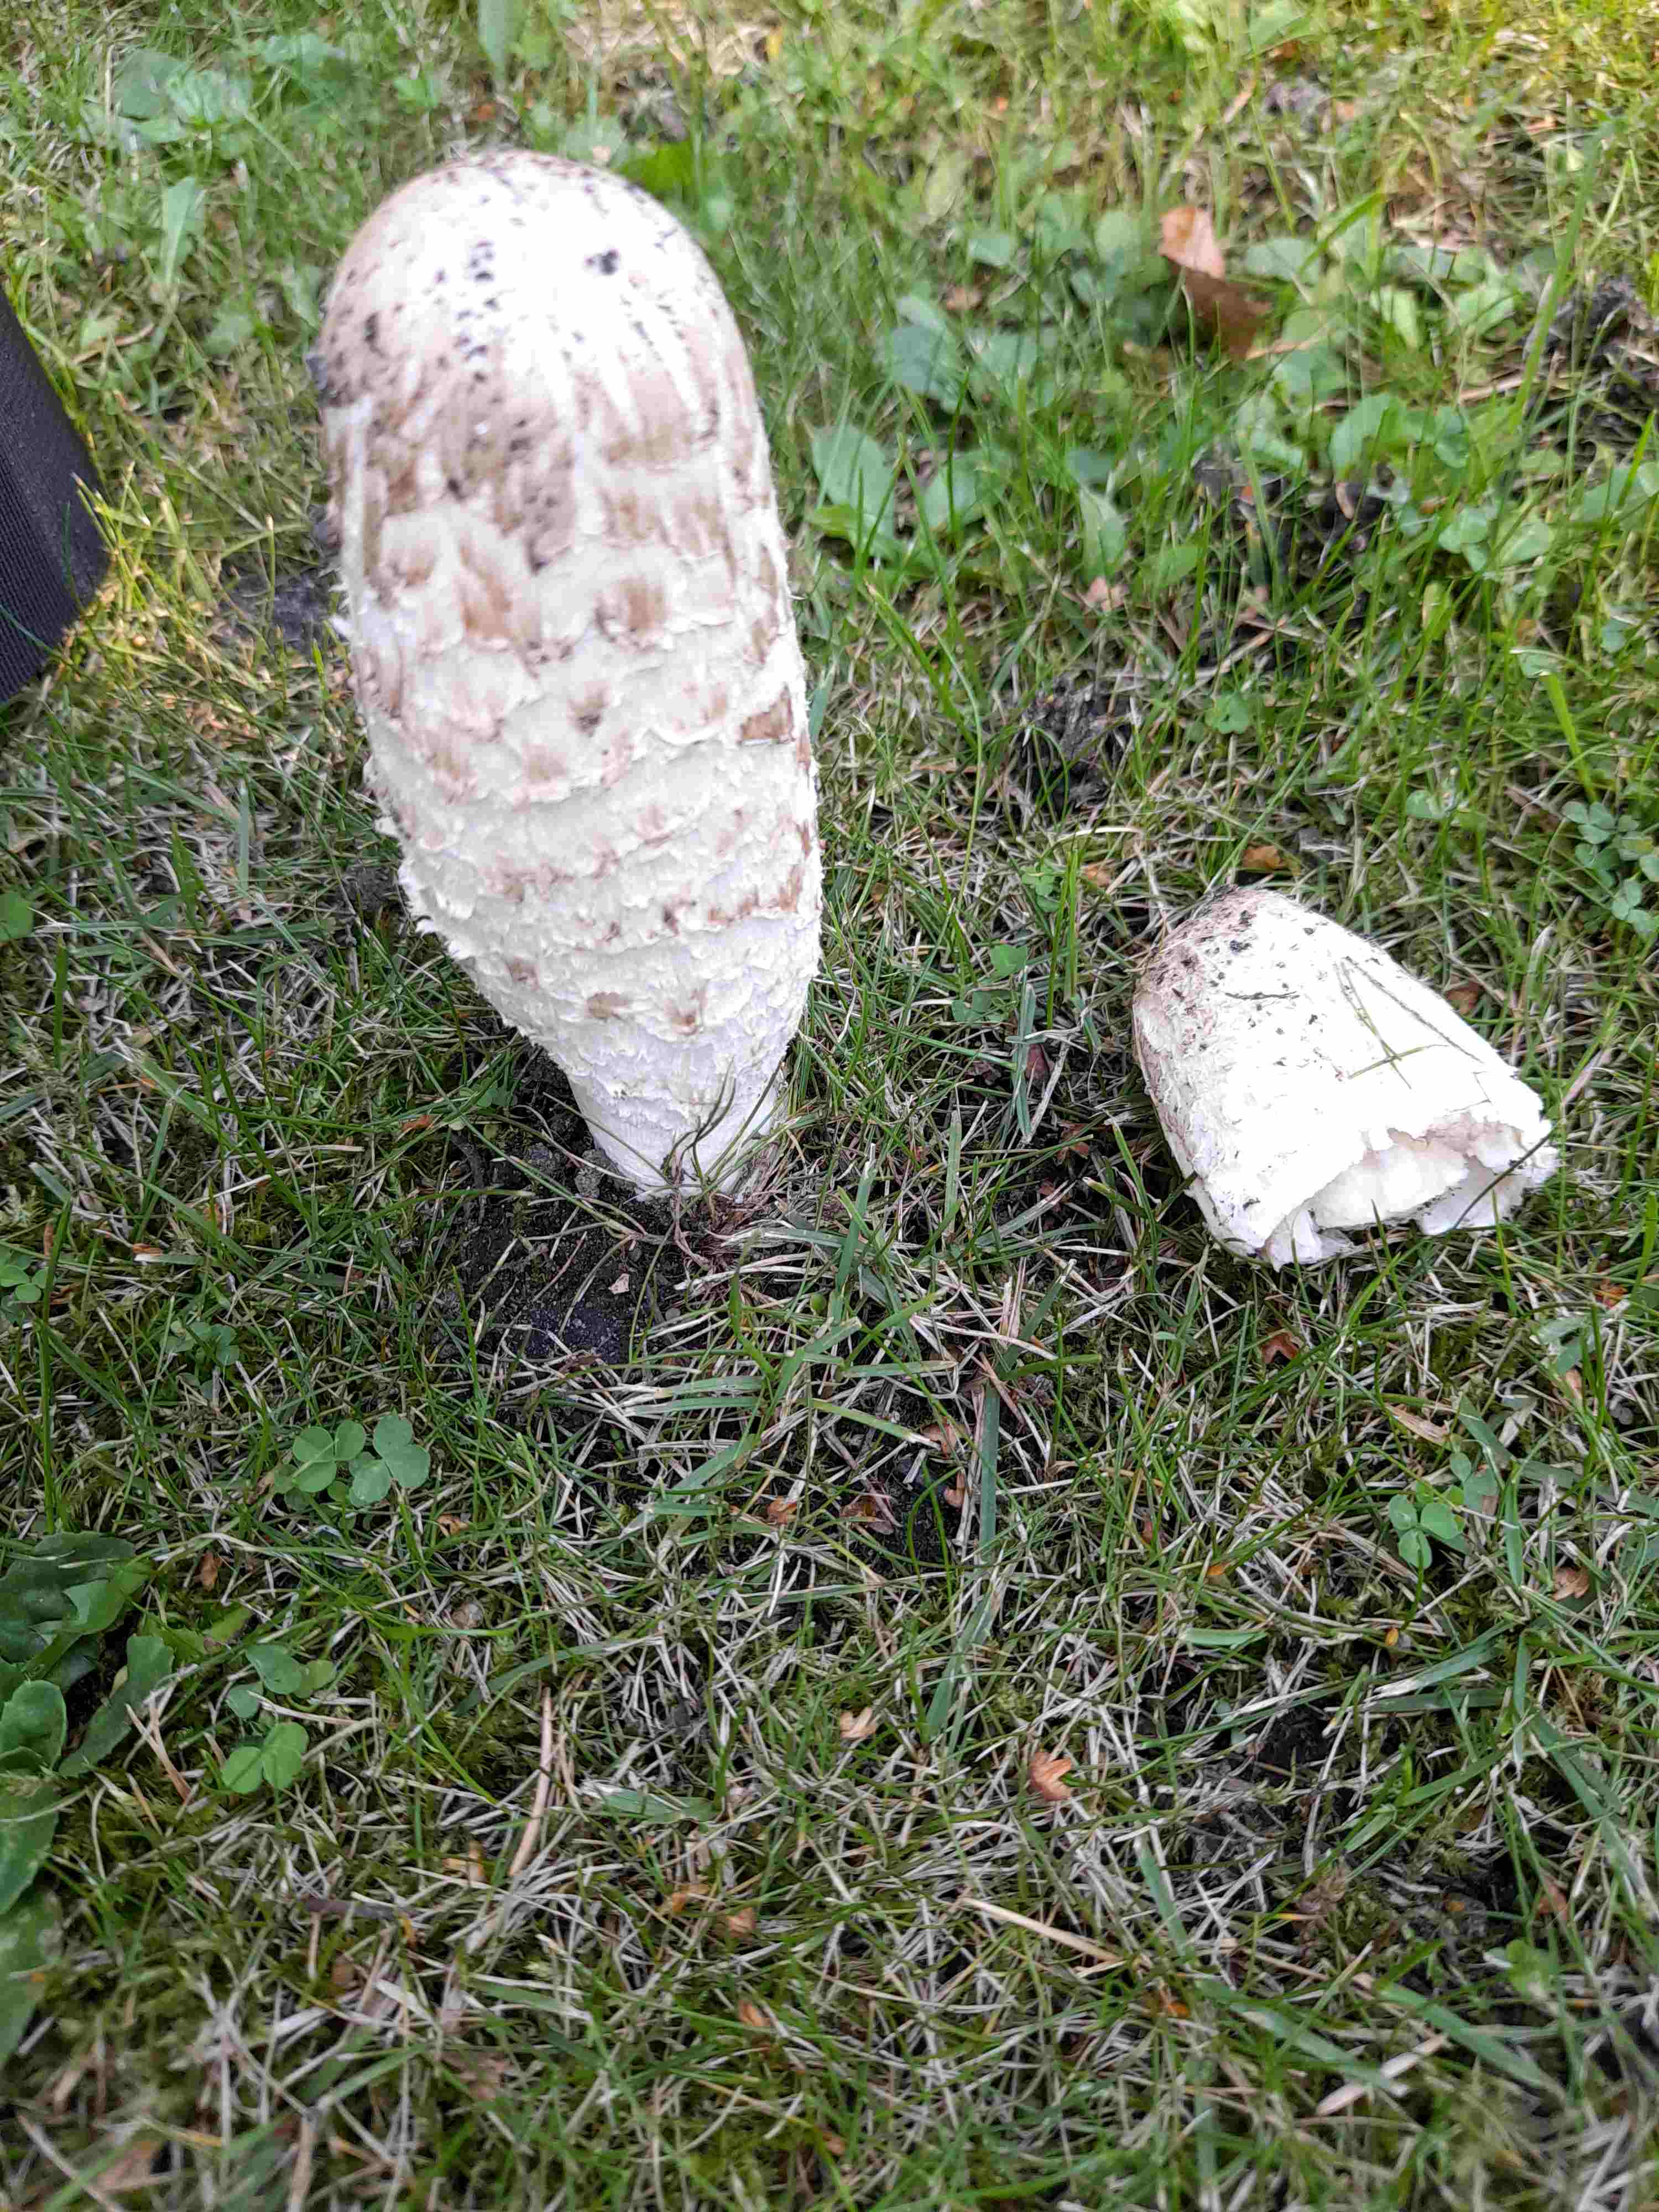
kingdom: Fungi
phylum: Basidiomycota
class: Agaricomycetes
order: Agaricales
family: Agaricaceae
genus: Coprinus
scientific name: Coprinus comatus
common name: stor parykhat
